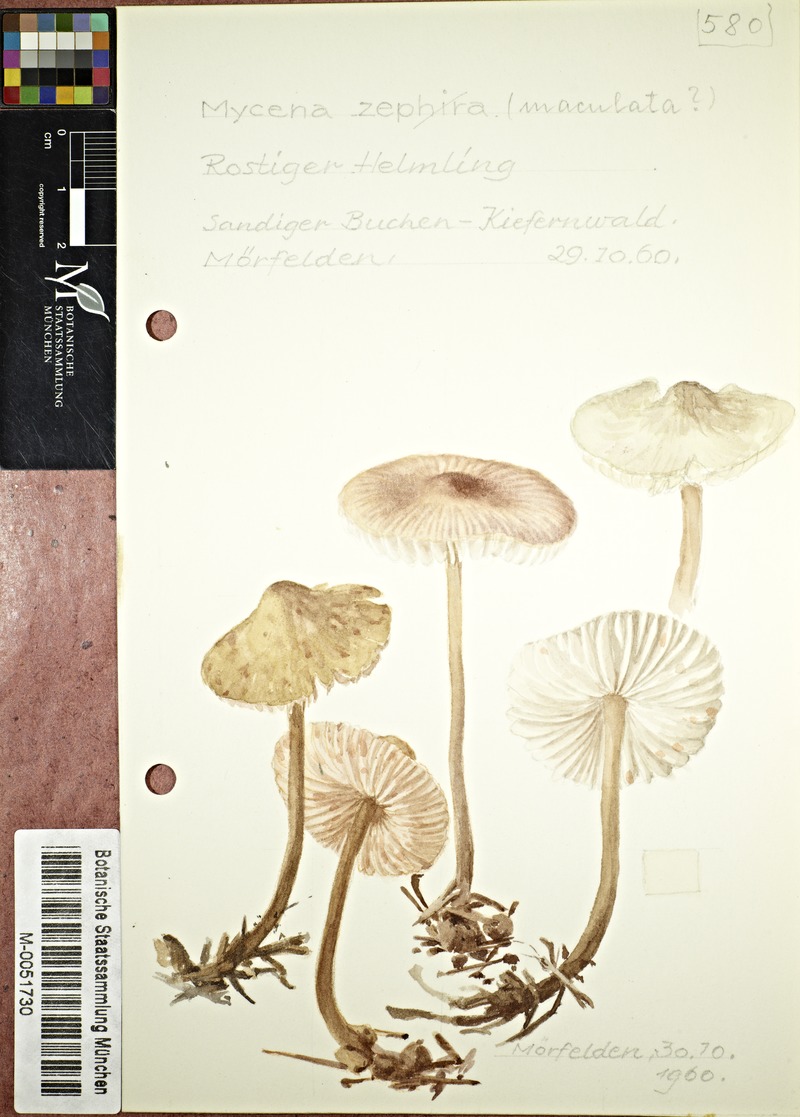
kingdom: Fungi
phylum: Basidiomycota
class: Agaricomycetes
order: Agaricales
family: Mycenaceae
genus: Mycena
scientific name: Mycena
